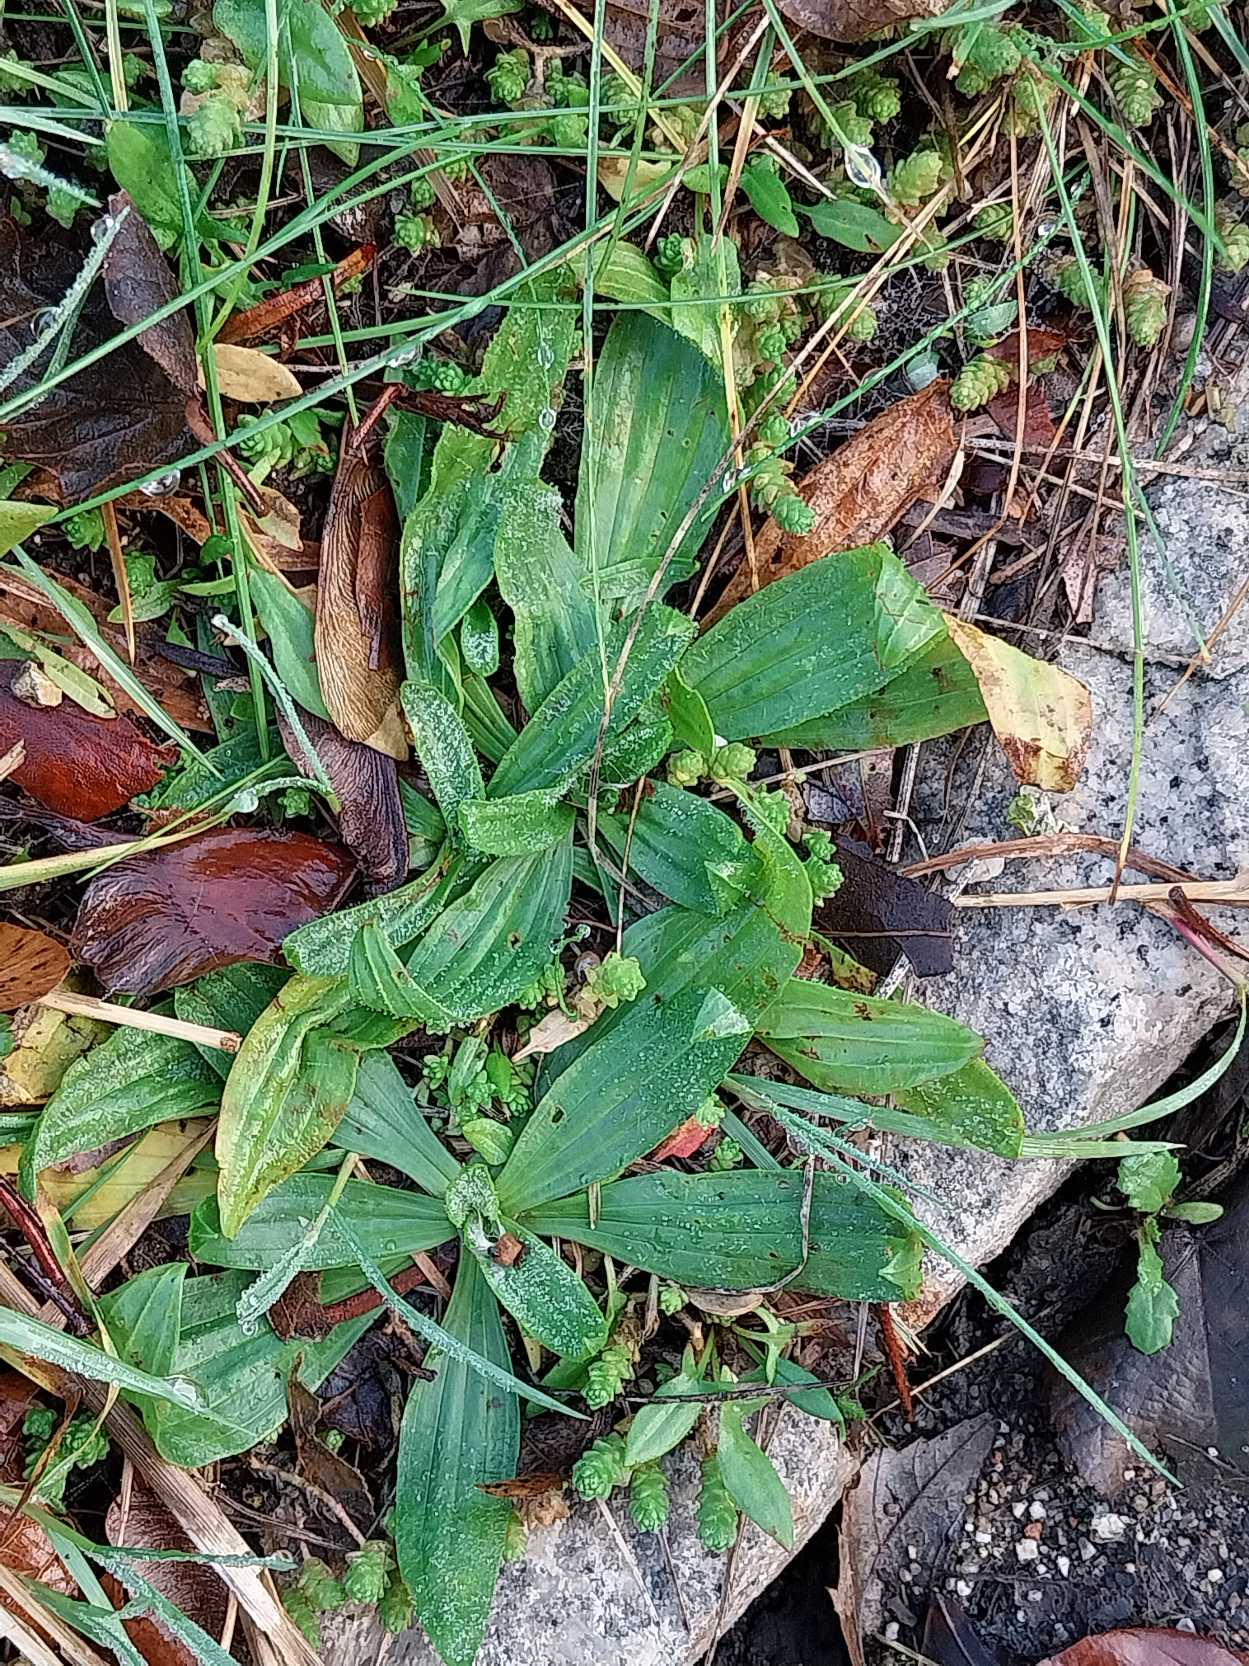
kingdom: Plantae
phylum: Tracheophyta
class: Magnoliopsida
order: Lamiales
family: Plantaginaceae
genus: Plantago
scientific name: Plantago lanceolata
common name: Lancet-vejbred
